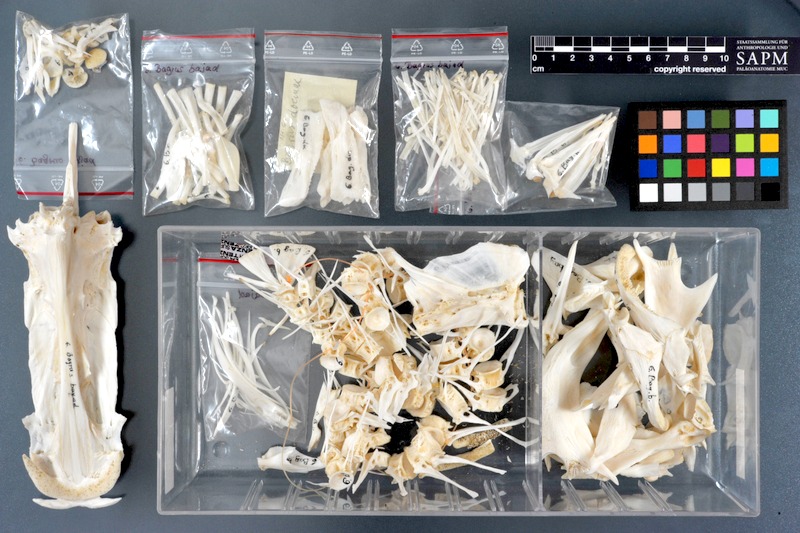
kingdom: Animalia
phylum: Chordata
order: Siluriformes
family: Bagridae
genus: Bagrus
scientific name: Bagrus bajad
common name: Bayad
